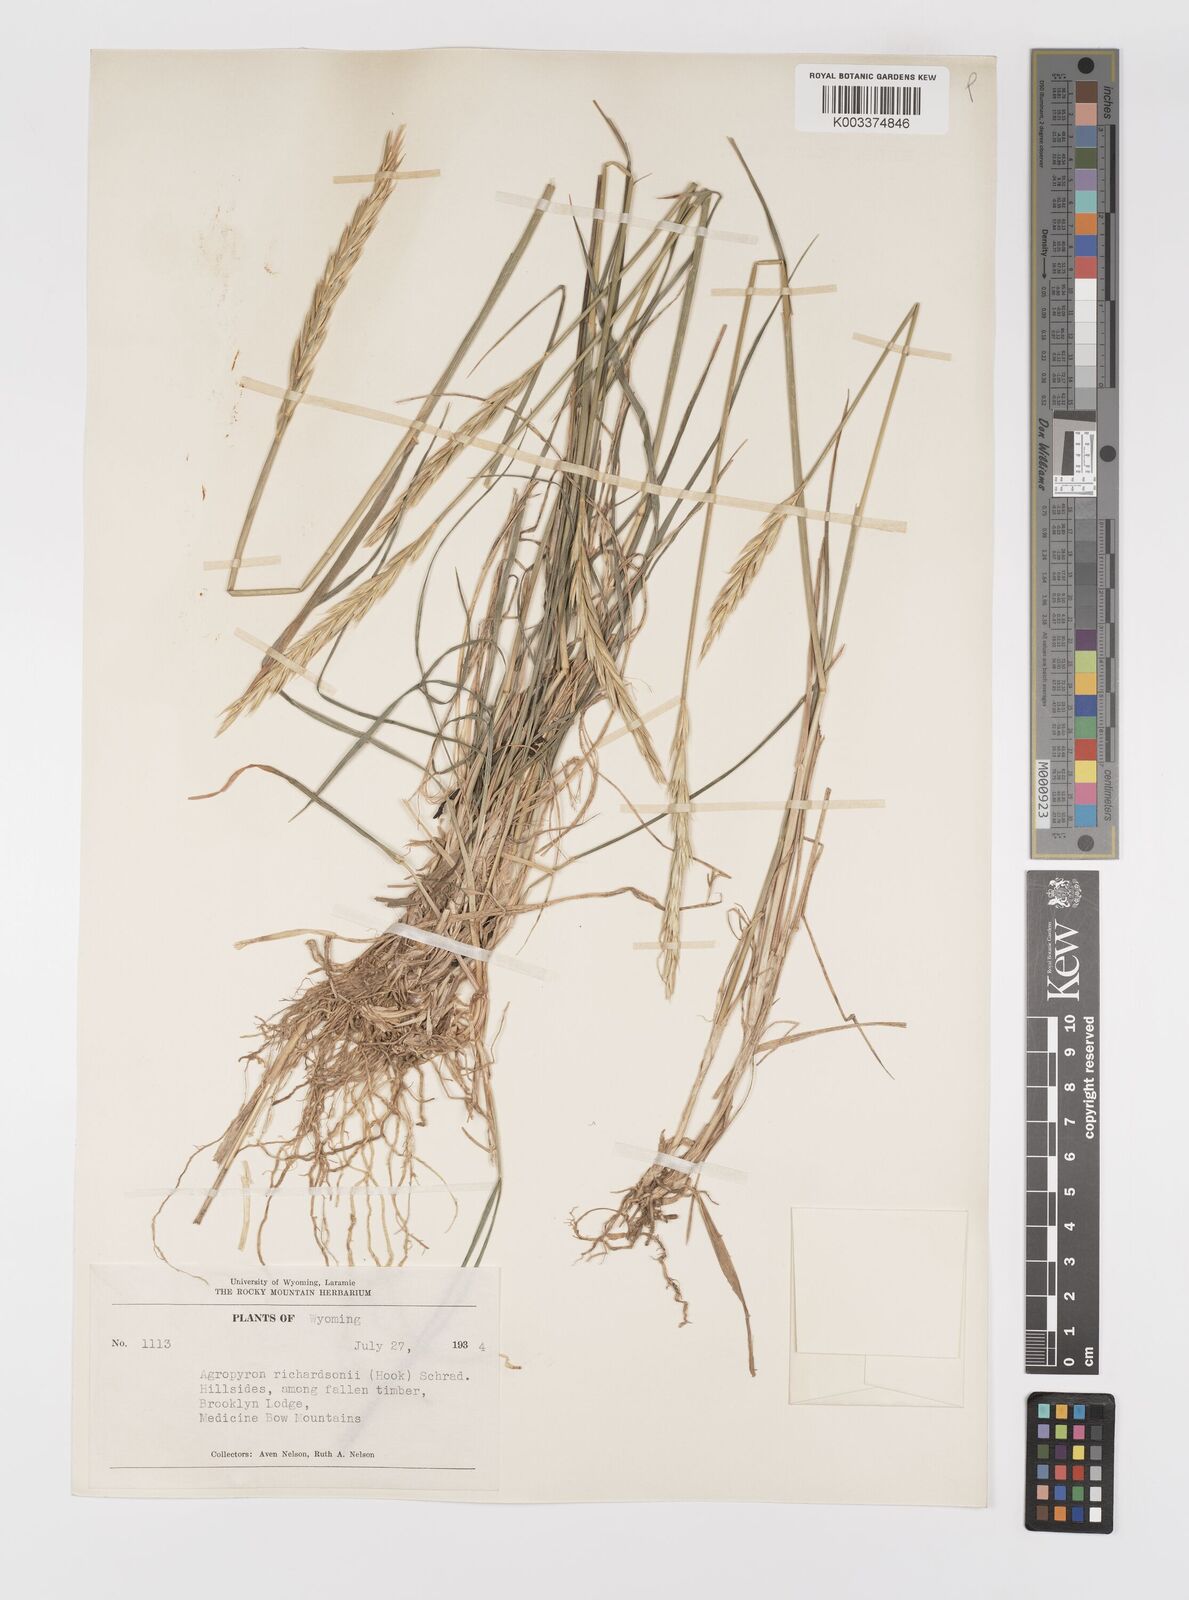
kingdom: Plantae
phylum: Tracheophyta
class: Liliopsida
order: Poales
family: Poaceae
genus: Elymus
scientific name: Elymus violaceus
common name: Arctic wheatgrass
